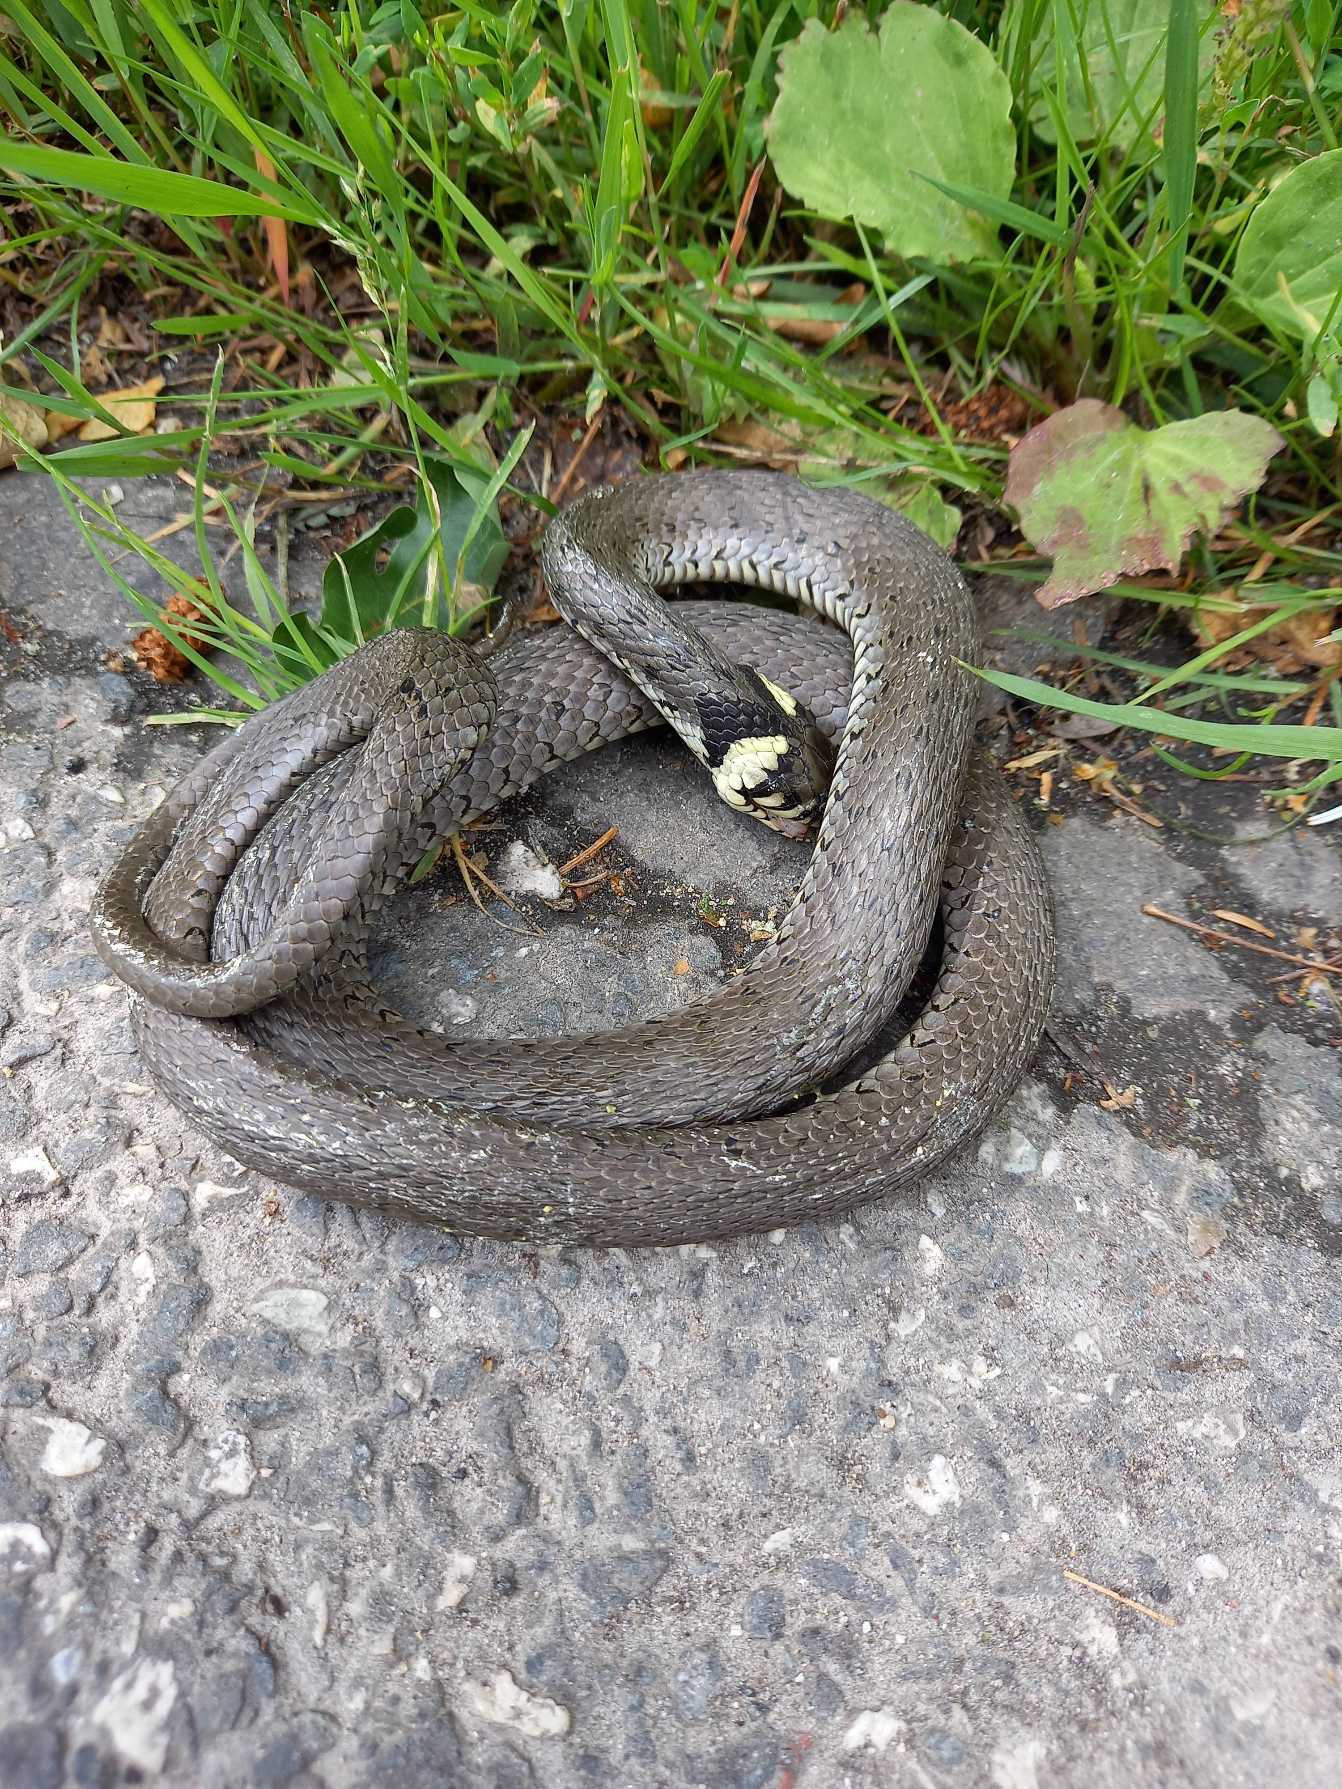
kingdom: Animalia
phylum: Chordata
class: Squamata
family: Colubridae
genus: Natrix
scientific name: Natrix natrix
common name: Snog
